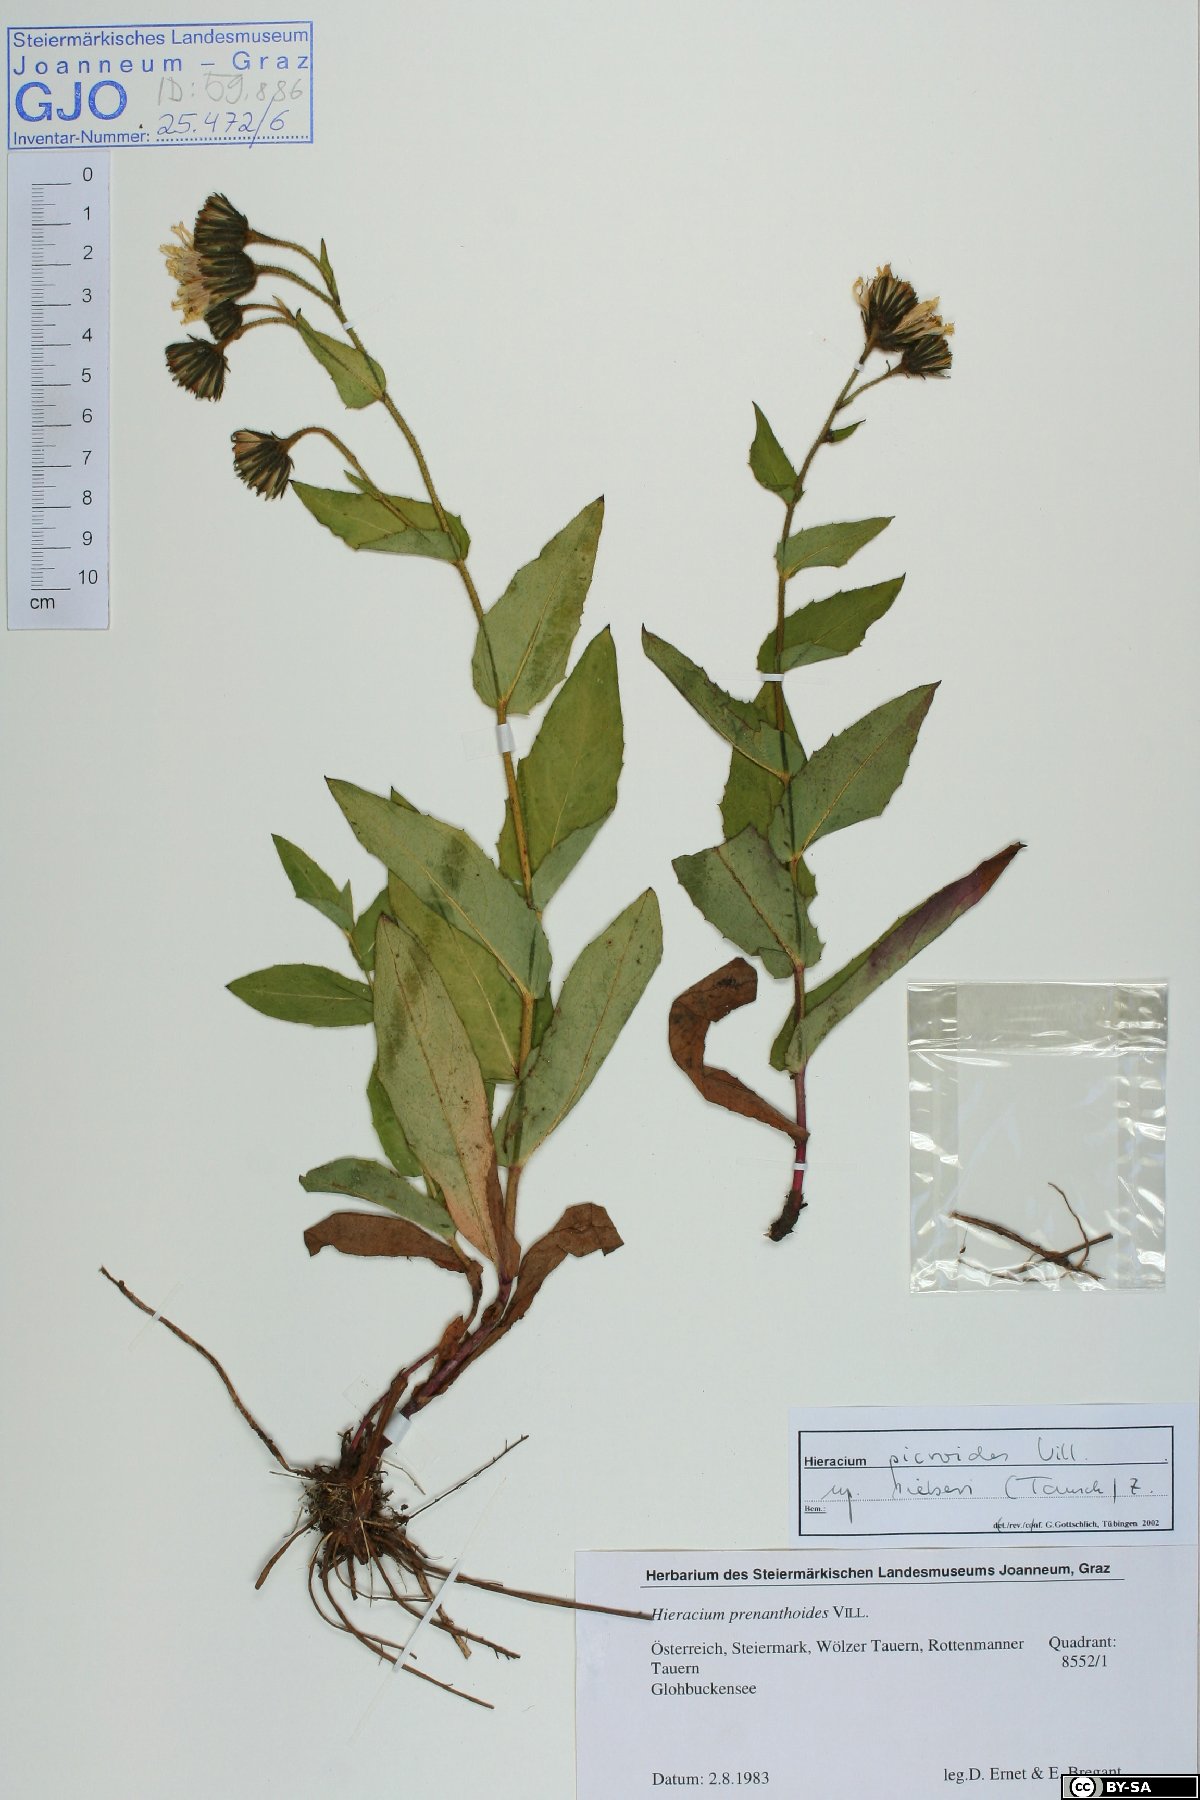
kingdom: Plantae
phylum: Tracheophyta
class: Magnoliopsida
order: Asterales
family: Asteraceae
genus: Hieracium
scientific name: Hieracium picroides
